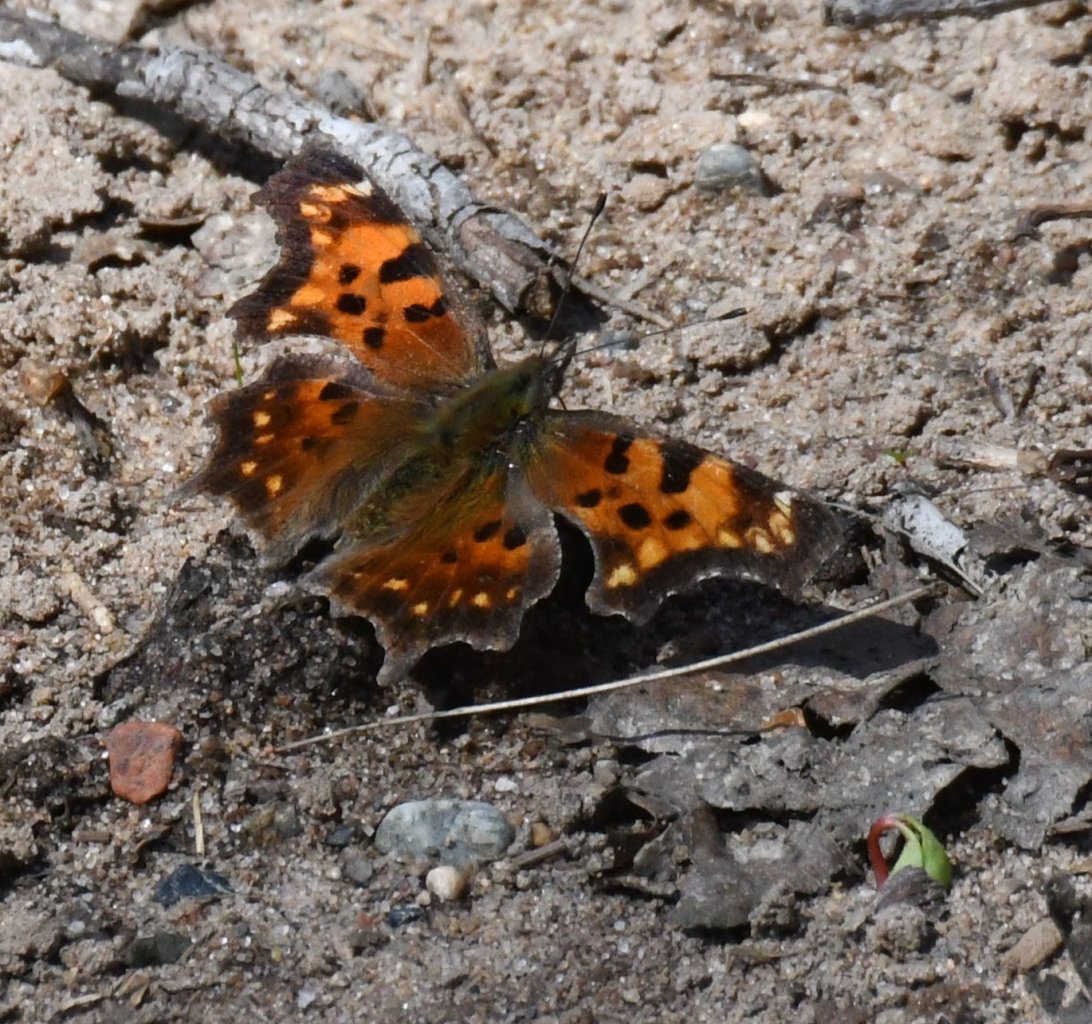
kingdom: Animalia
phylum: Arthropoda
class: Insecta
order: Lepidoptera
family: Nymphalidae
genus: Polygonia
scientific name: Polygonia faunus
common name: Green Comma
